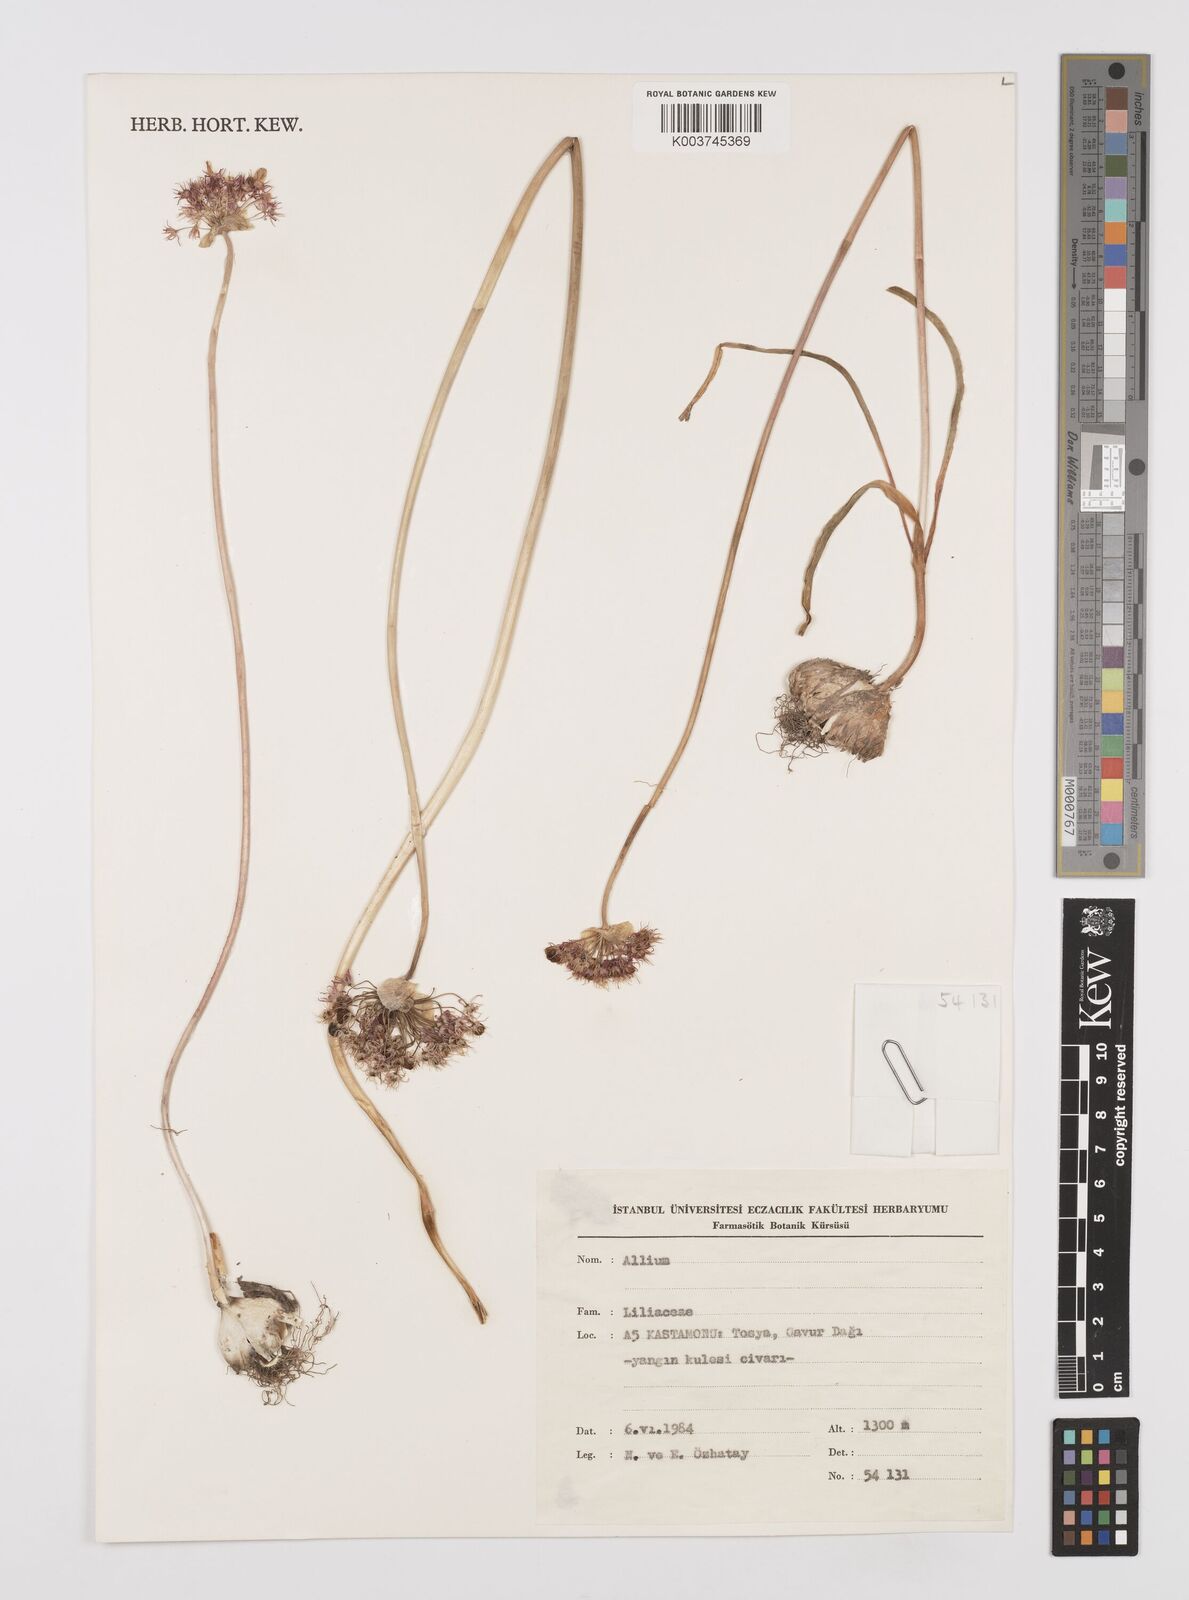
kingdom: Plantae
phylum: Tracheophyta
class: Liliopsida
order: Asparagales
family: Amaryllidaceae
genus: Allium
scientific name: Allium
